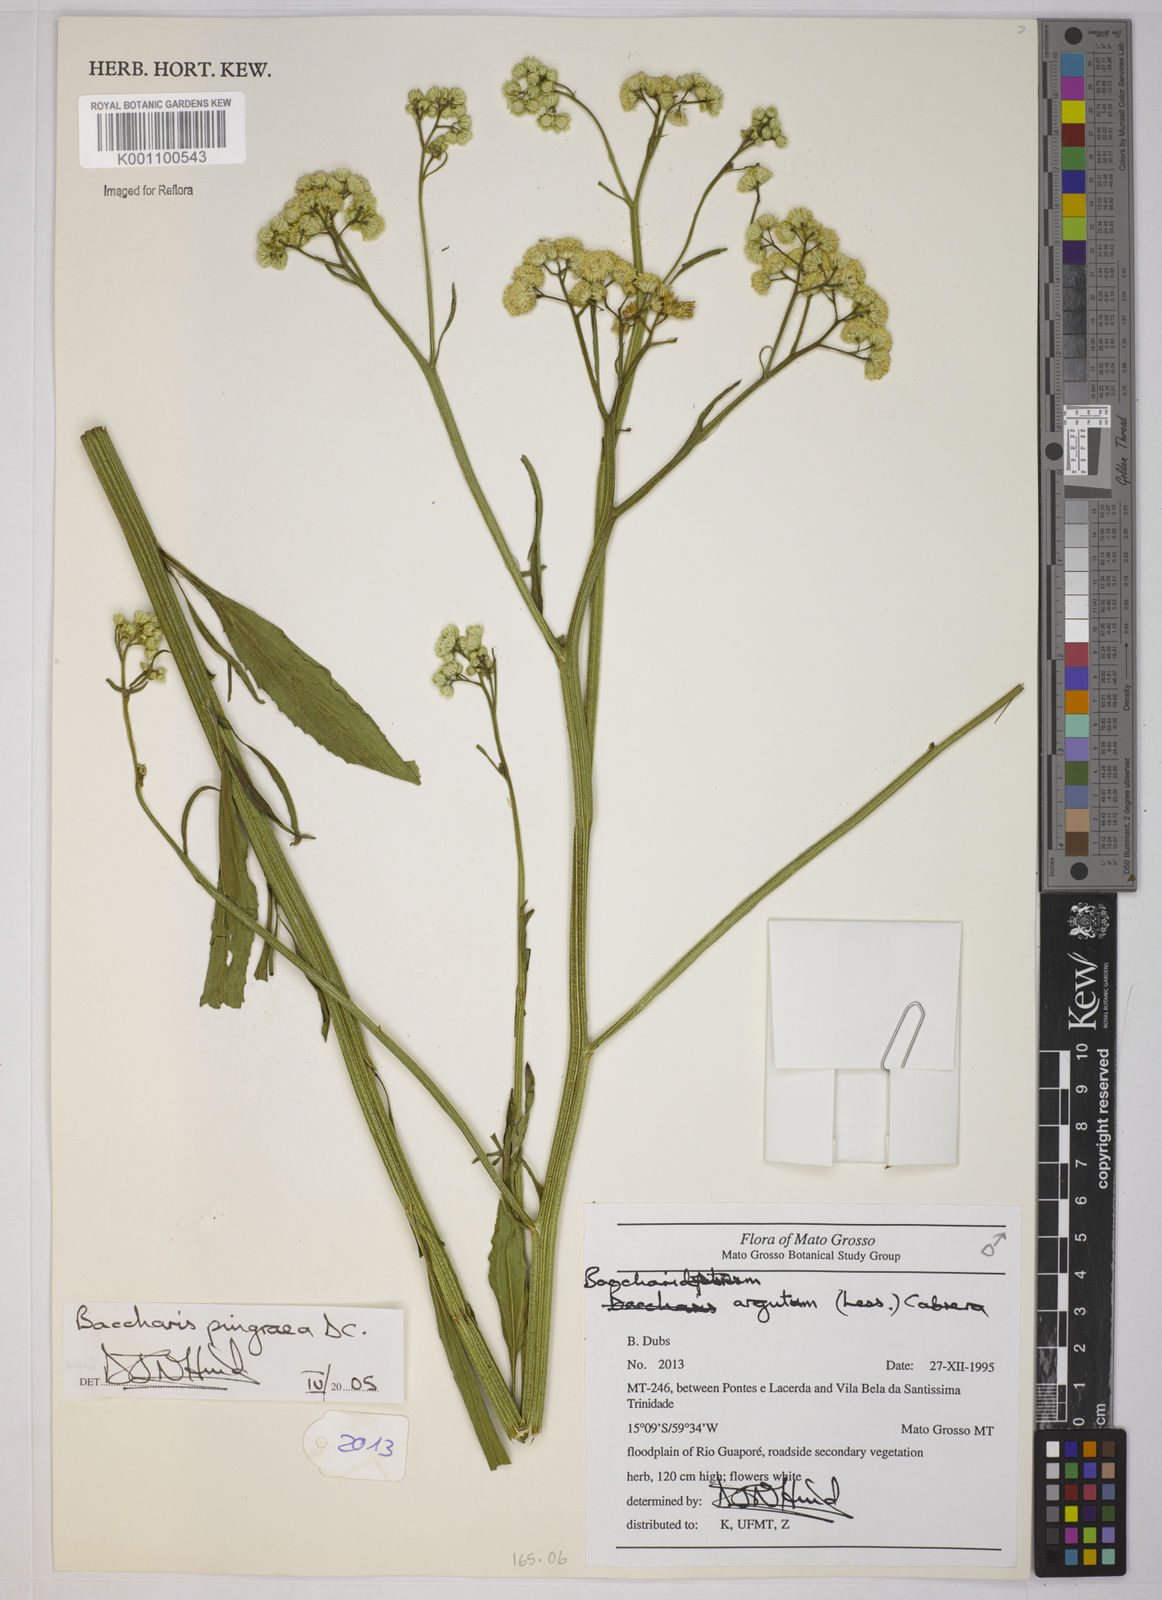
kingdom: Plantae
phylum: Tracheophyta
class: Magnoliopsida
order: Asterales
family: Asteraceae
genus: Baccharis
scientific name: Baccharis glutinosa
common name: Saltmarsh baccharis
